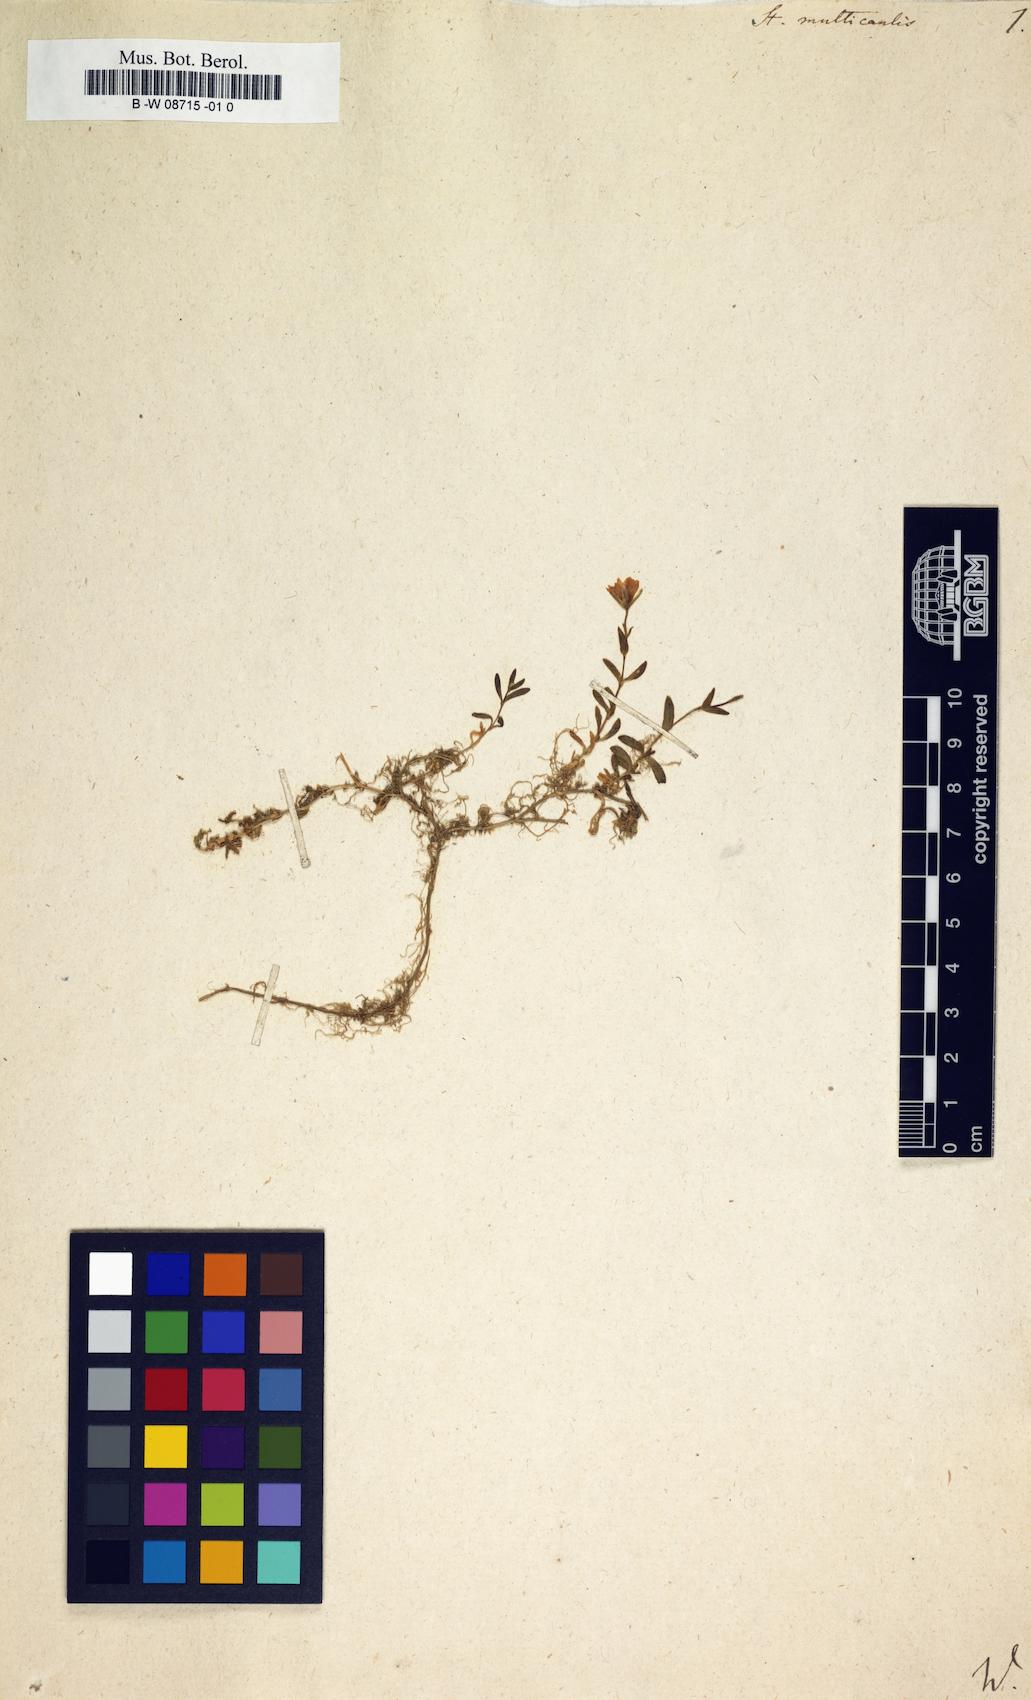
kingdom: Plantae
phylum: Tracheophyta
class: Magnoliopsida
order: Caryophyllales
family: Caryophyllaceae
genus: Dichodon
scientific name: Dichodon cerastoides
